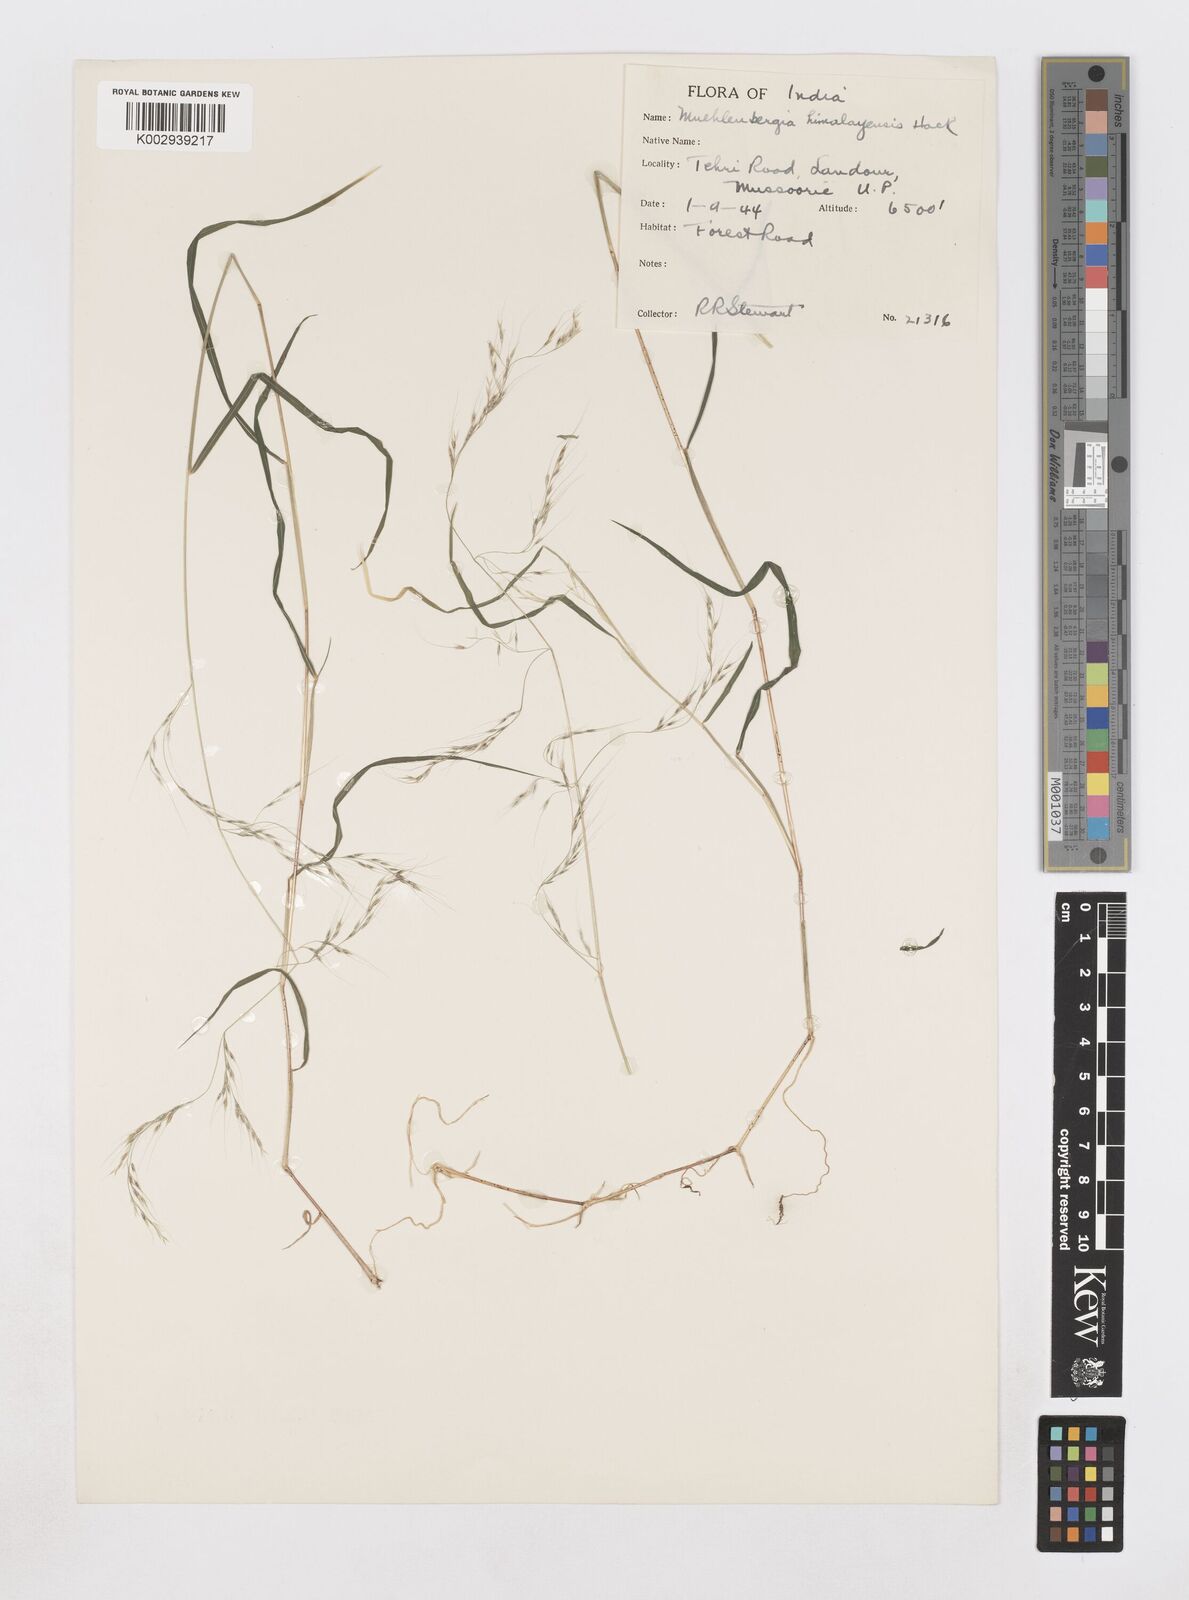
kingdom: Plantae
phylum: Tracheophyta
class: Liliopsida
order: Poales
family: Poaceae
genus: Muhlenbergia
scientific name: Muhlenbergia himalayensis
